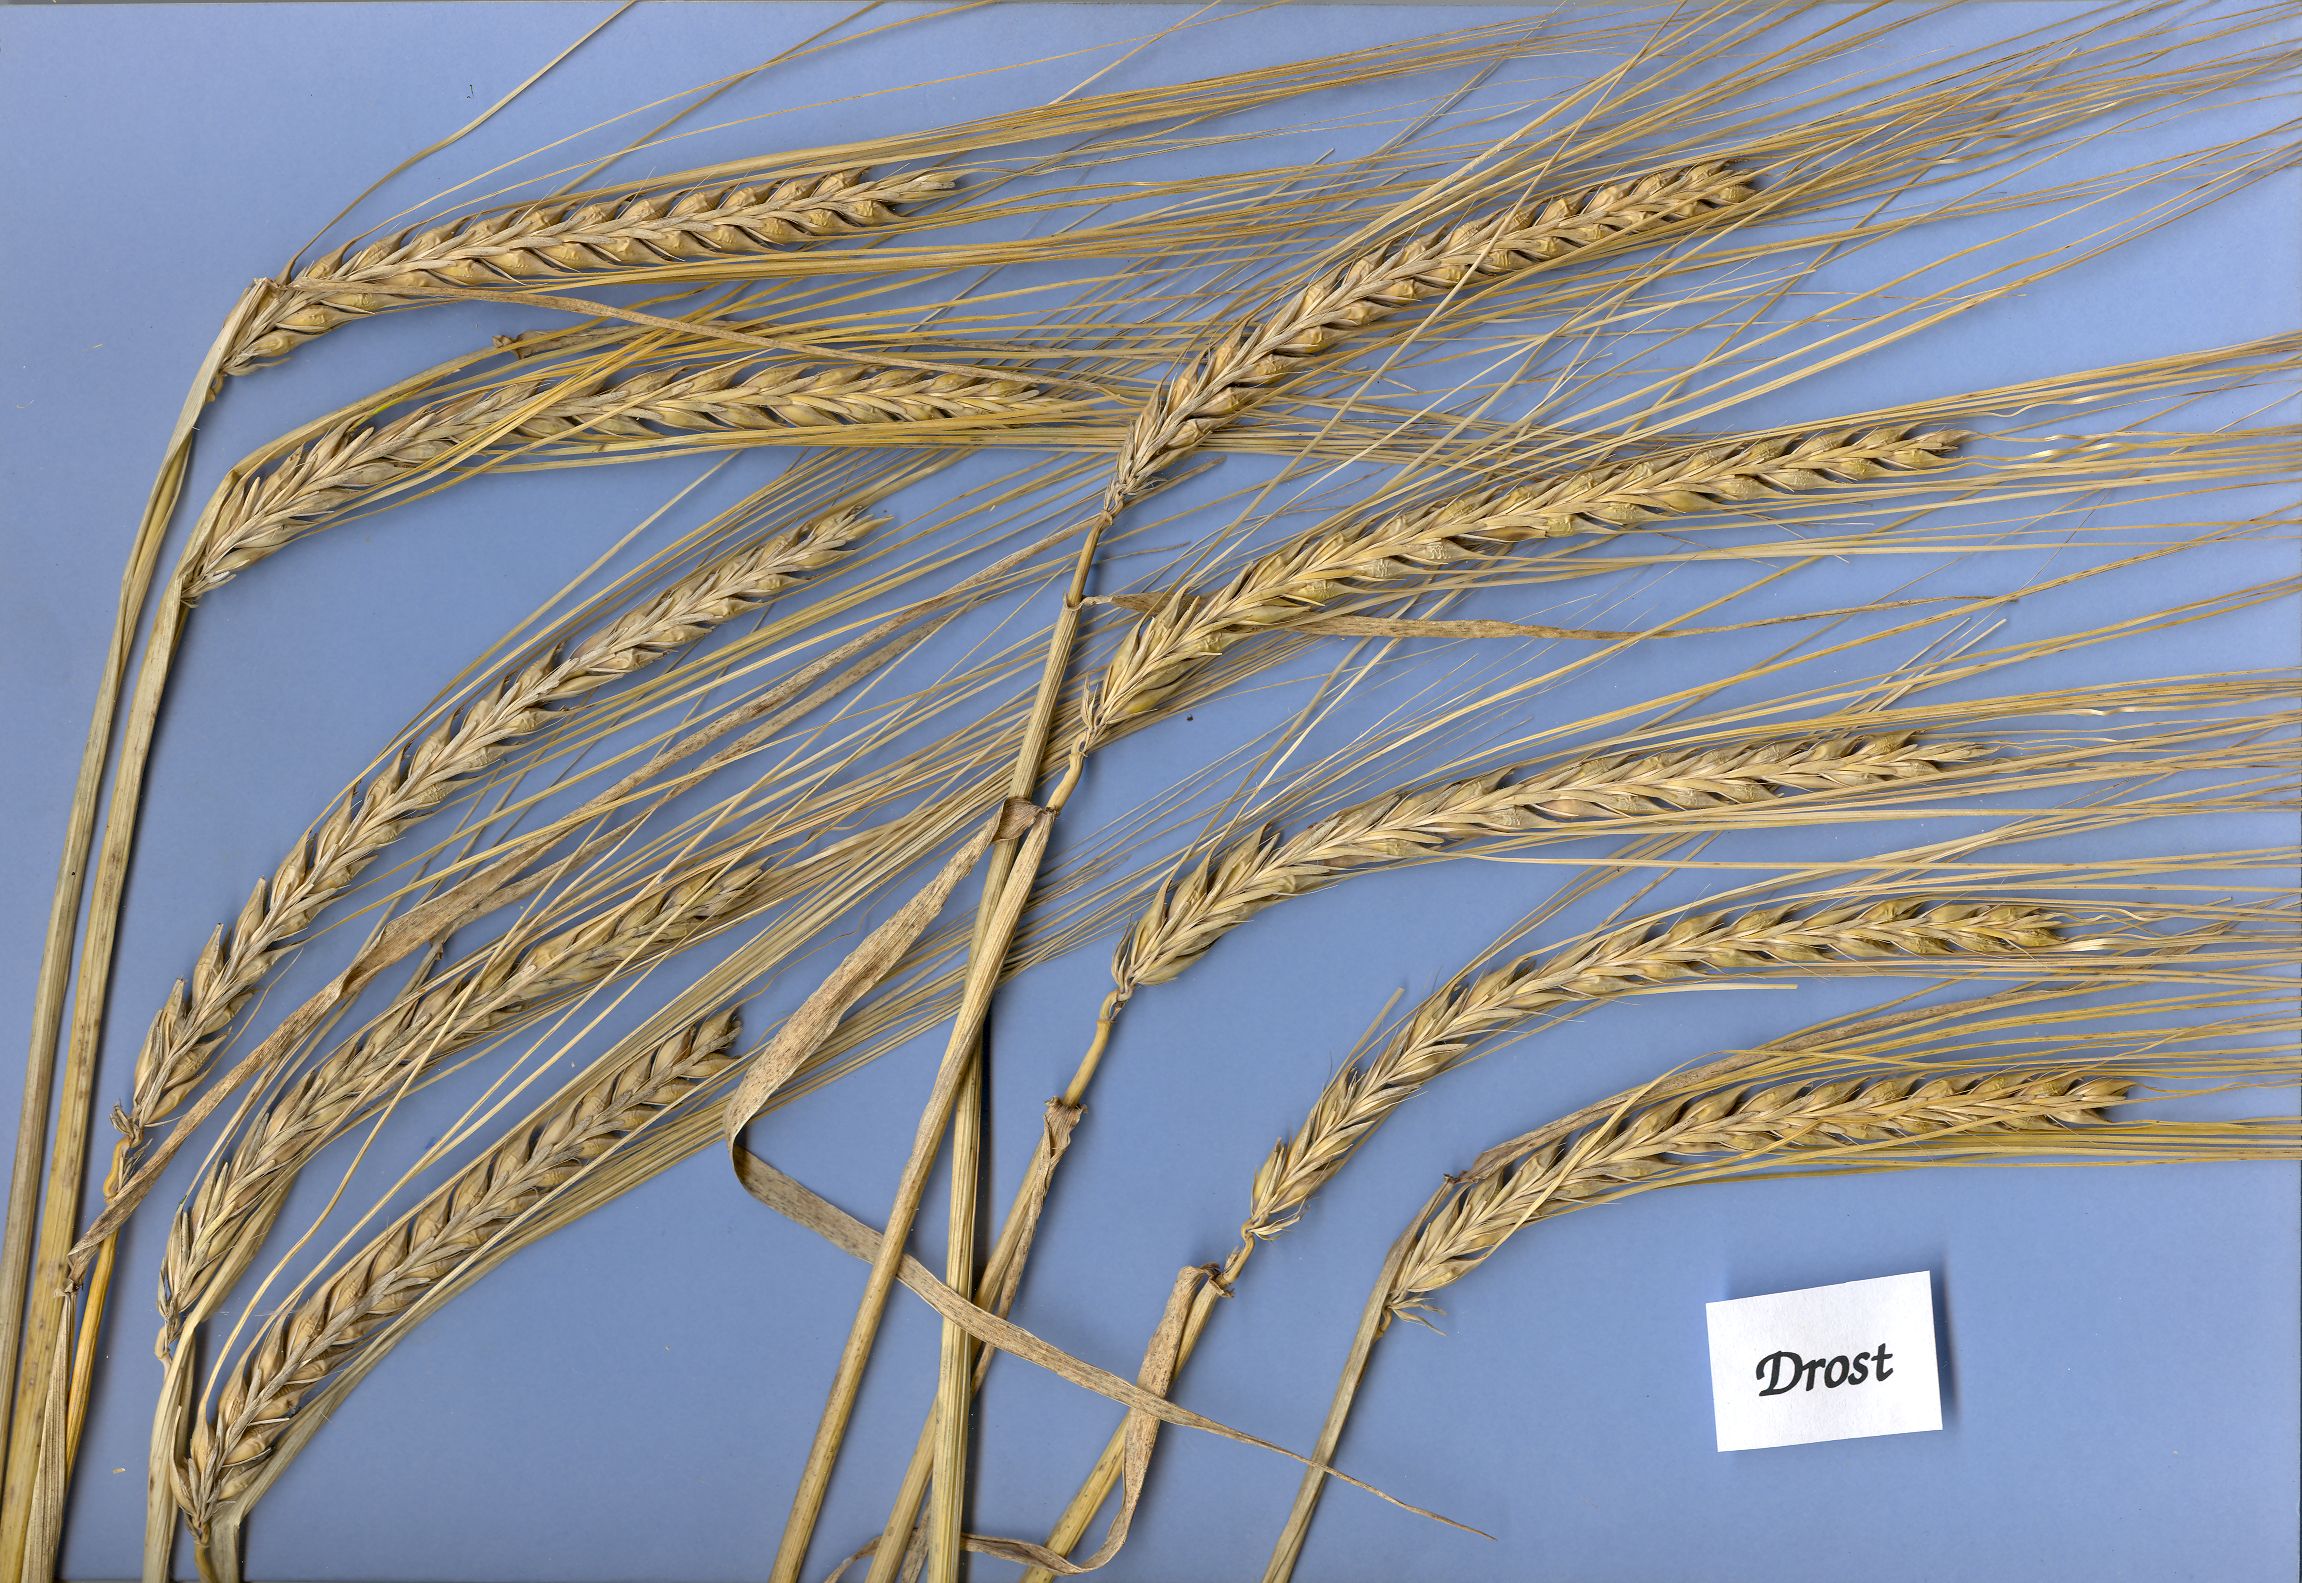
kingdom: Plantae
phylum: Tracheophyta
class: Liliopsida
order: Poales
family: Poaceae
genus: Hordeum
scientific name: Hordeum vulgare
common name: Common barley
